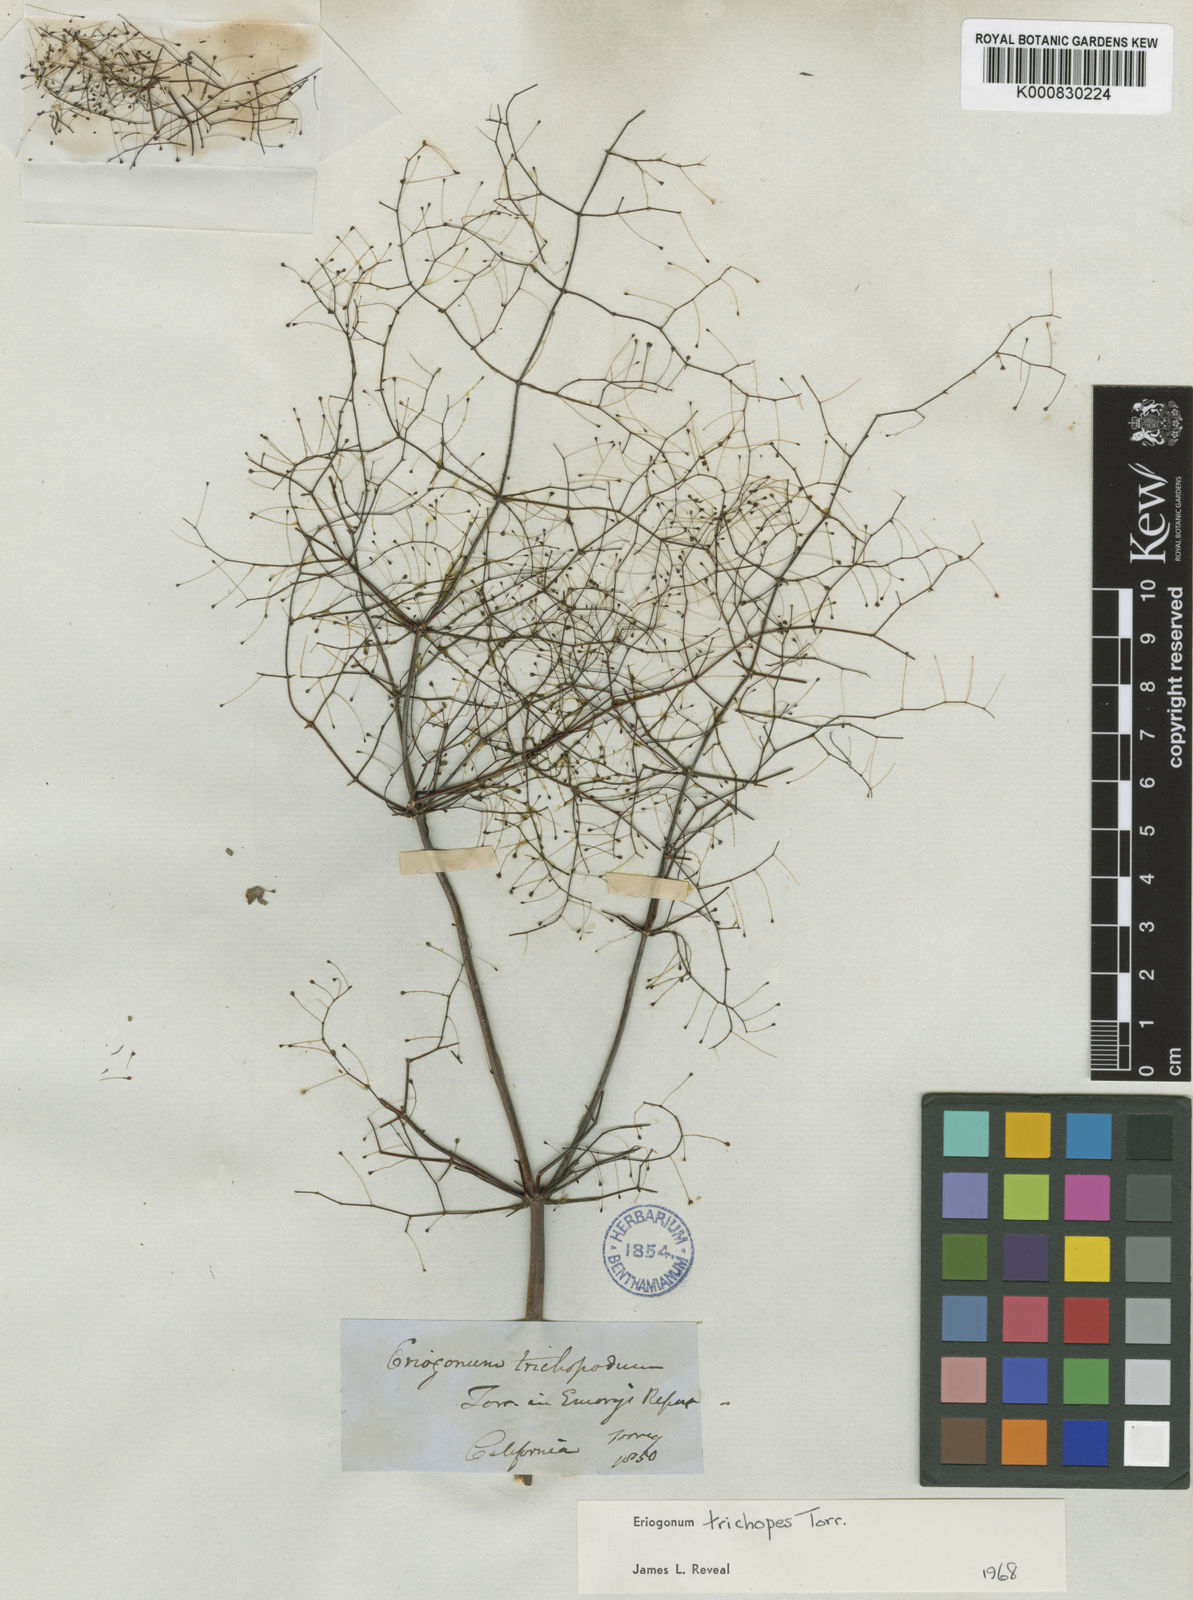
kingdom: Plantae
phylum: Tracheophyta
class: Magnoliopsida
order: Caryophyllales
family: Polygonaceae
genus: Eriogonum
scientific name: Eriogonum trichopes
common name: Little desert trumpet
